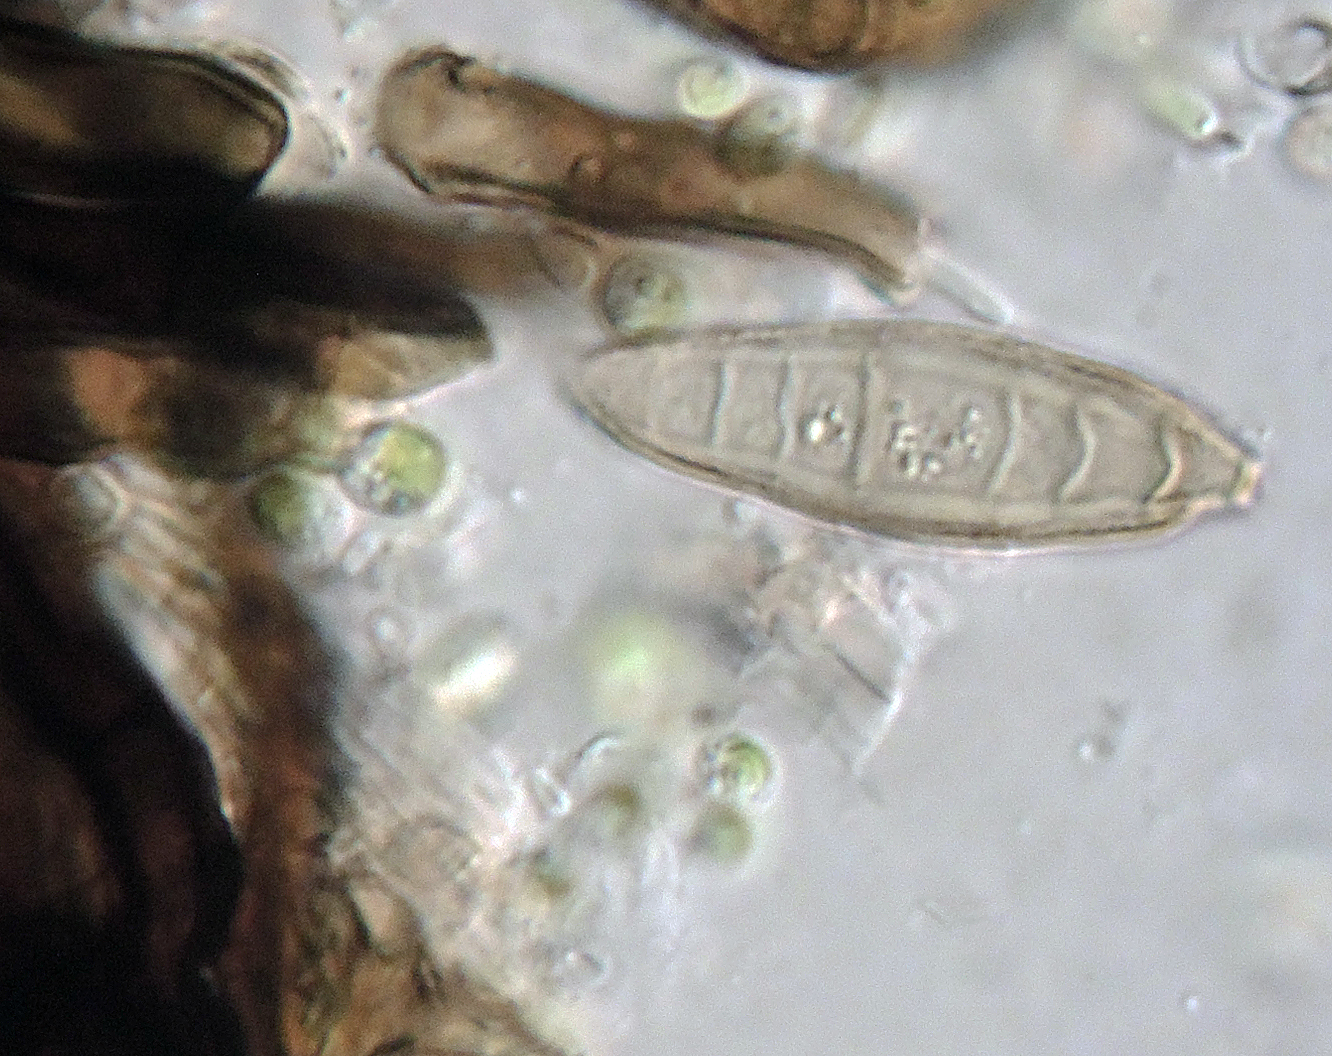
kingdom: Fungi
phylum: Ascomycota
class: Leotiomycetes
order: Helotiales
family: Helotiaceae
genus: Strossmayeria
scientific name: Strossmayeria basitricha
